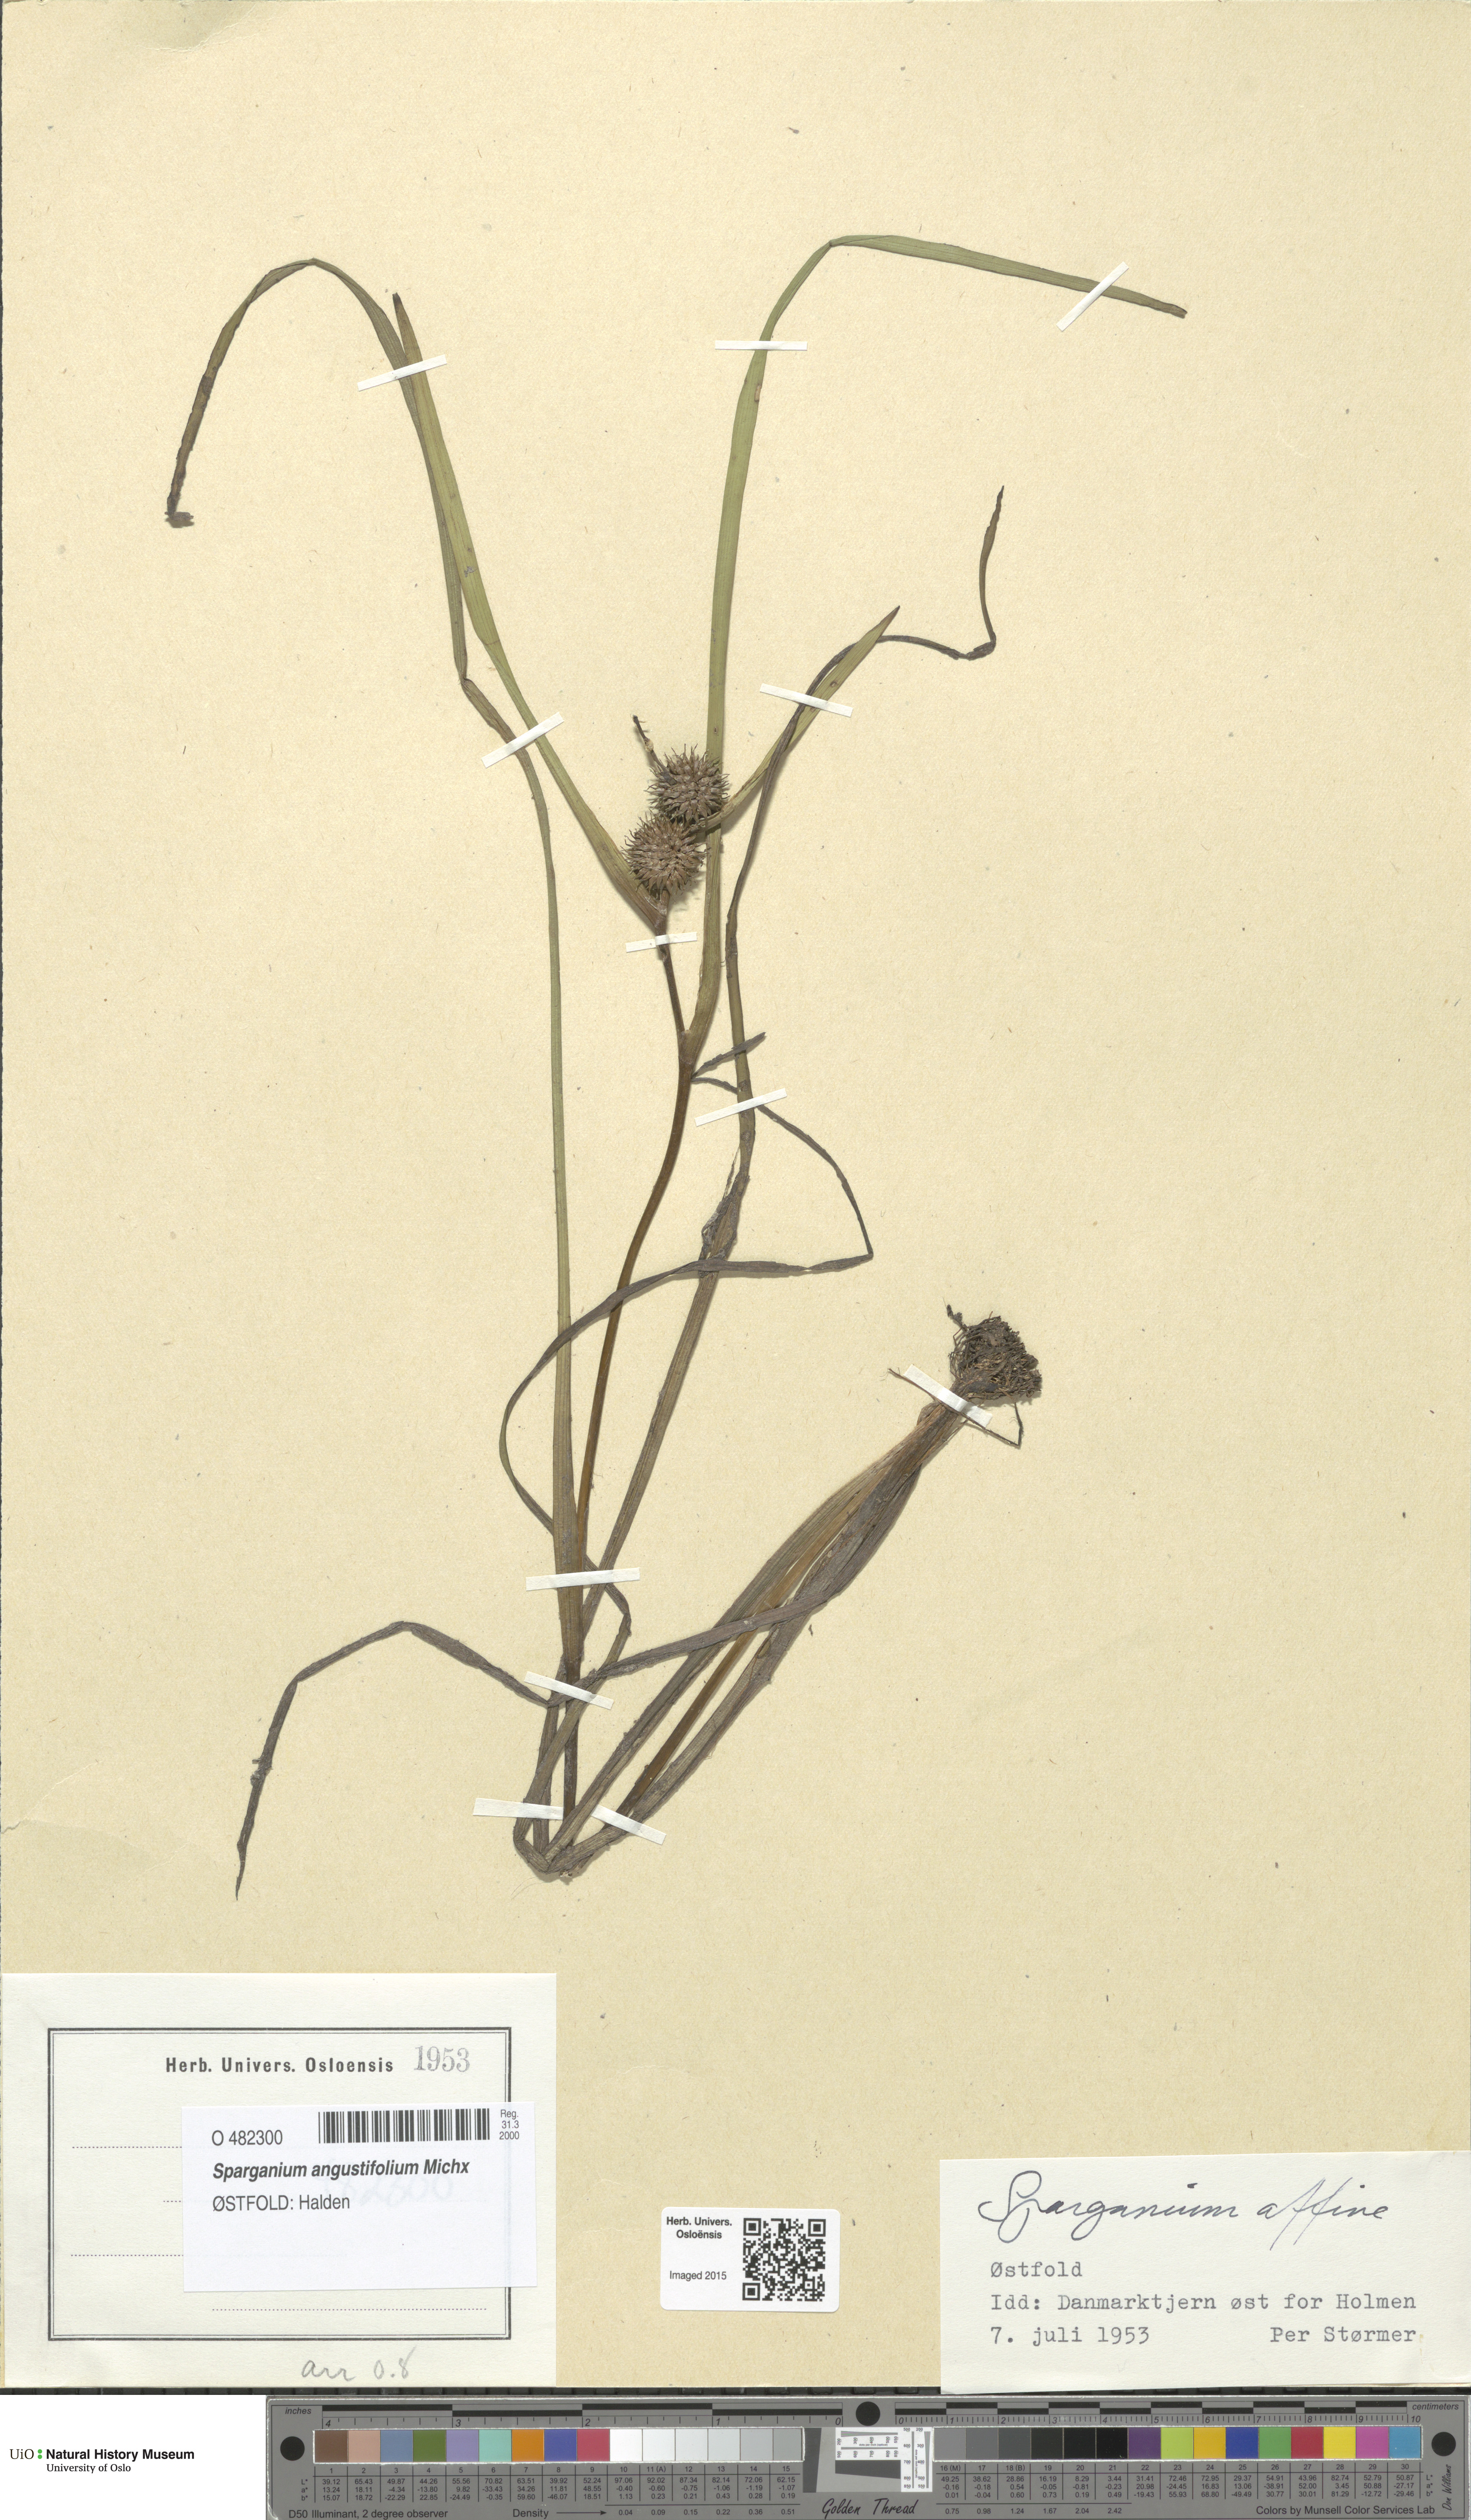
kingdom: Plantae
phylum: Tracheophyta
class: Liliopsida
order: Poales
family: Typhaceae
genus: Sparganium
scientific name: Sparganium angustifolium
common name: Floating bur-reed
